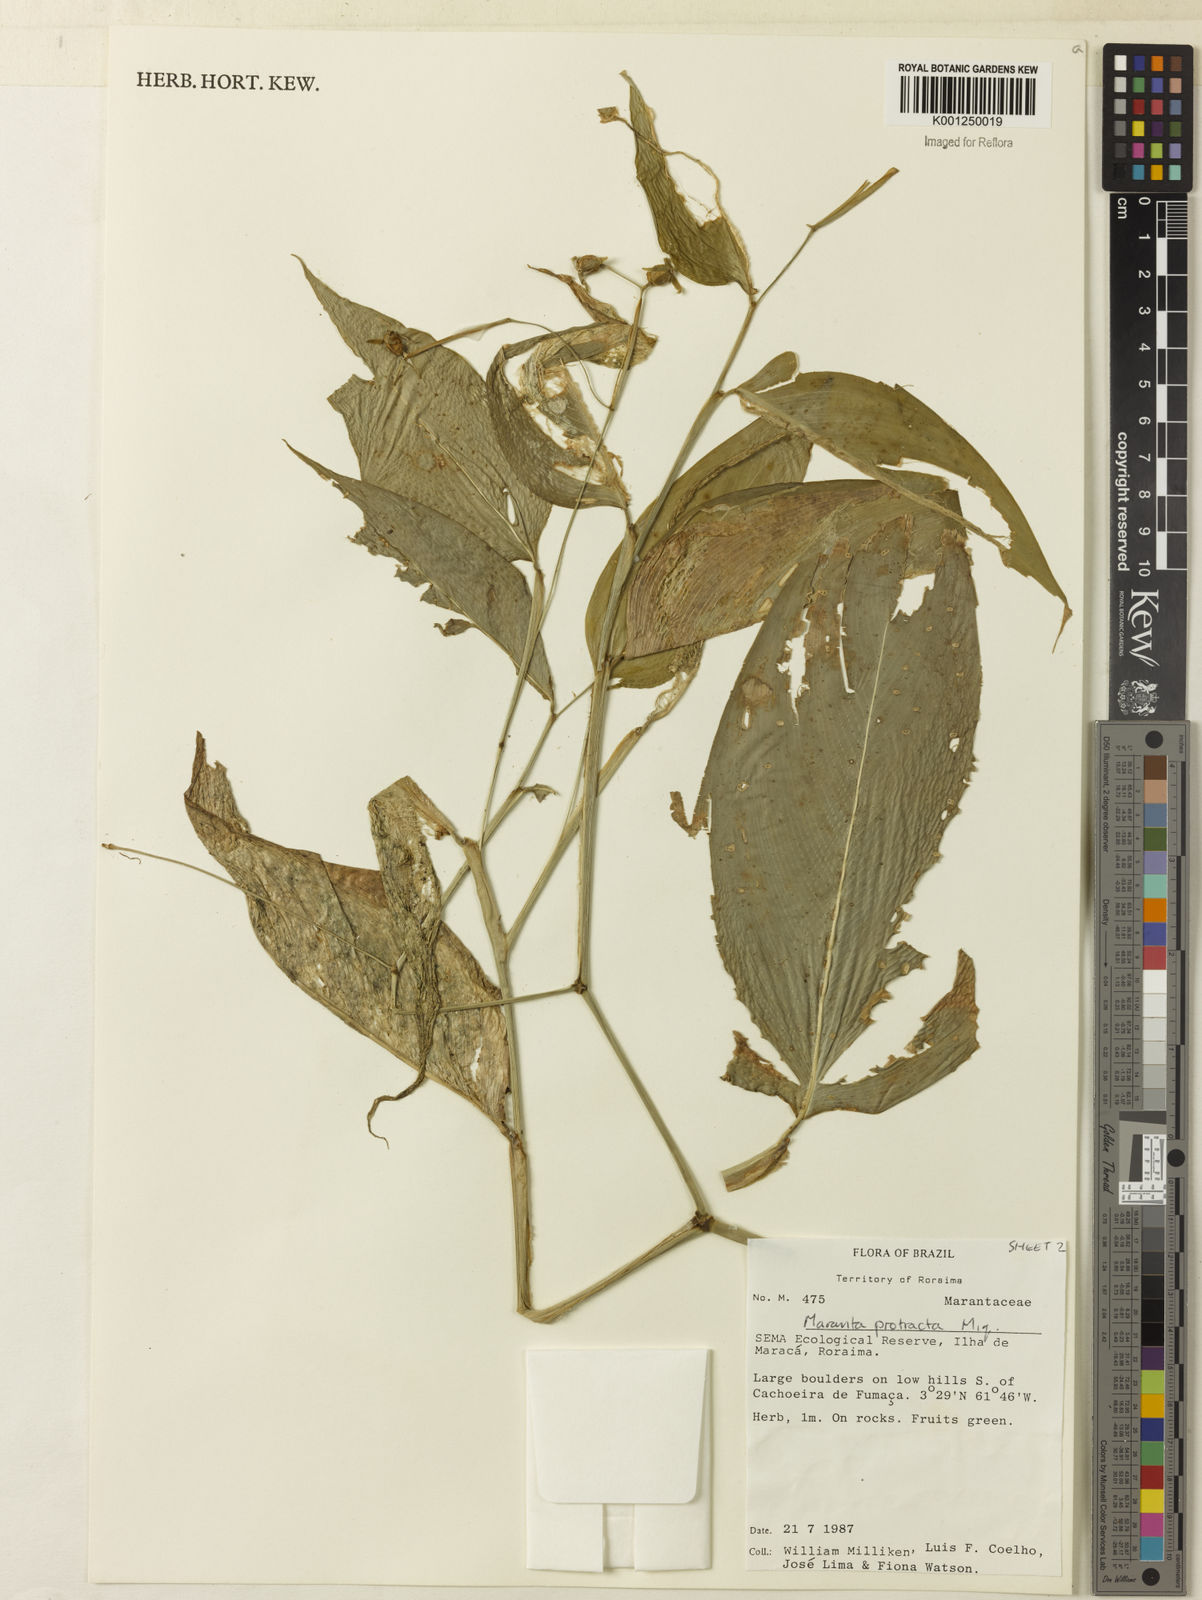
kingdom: Plantae
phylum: Tracheophyta
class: Liliopsida
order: Zingiberales
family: Marantaceae
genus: Maranta
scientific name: Maranta protracta
